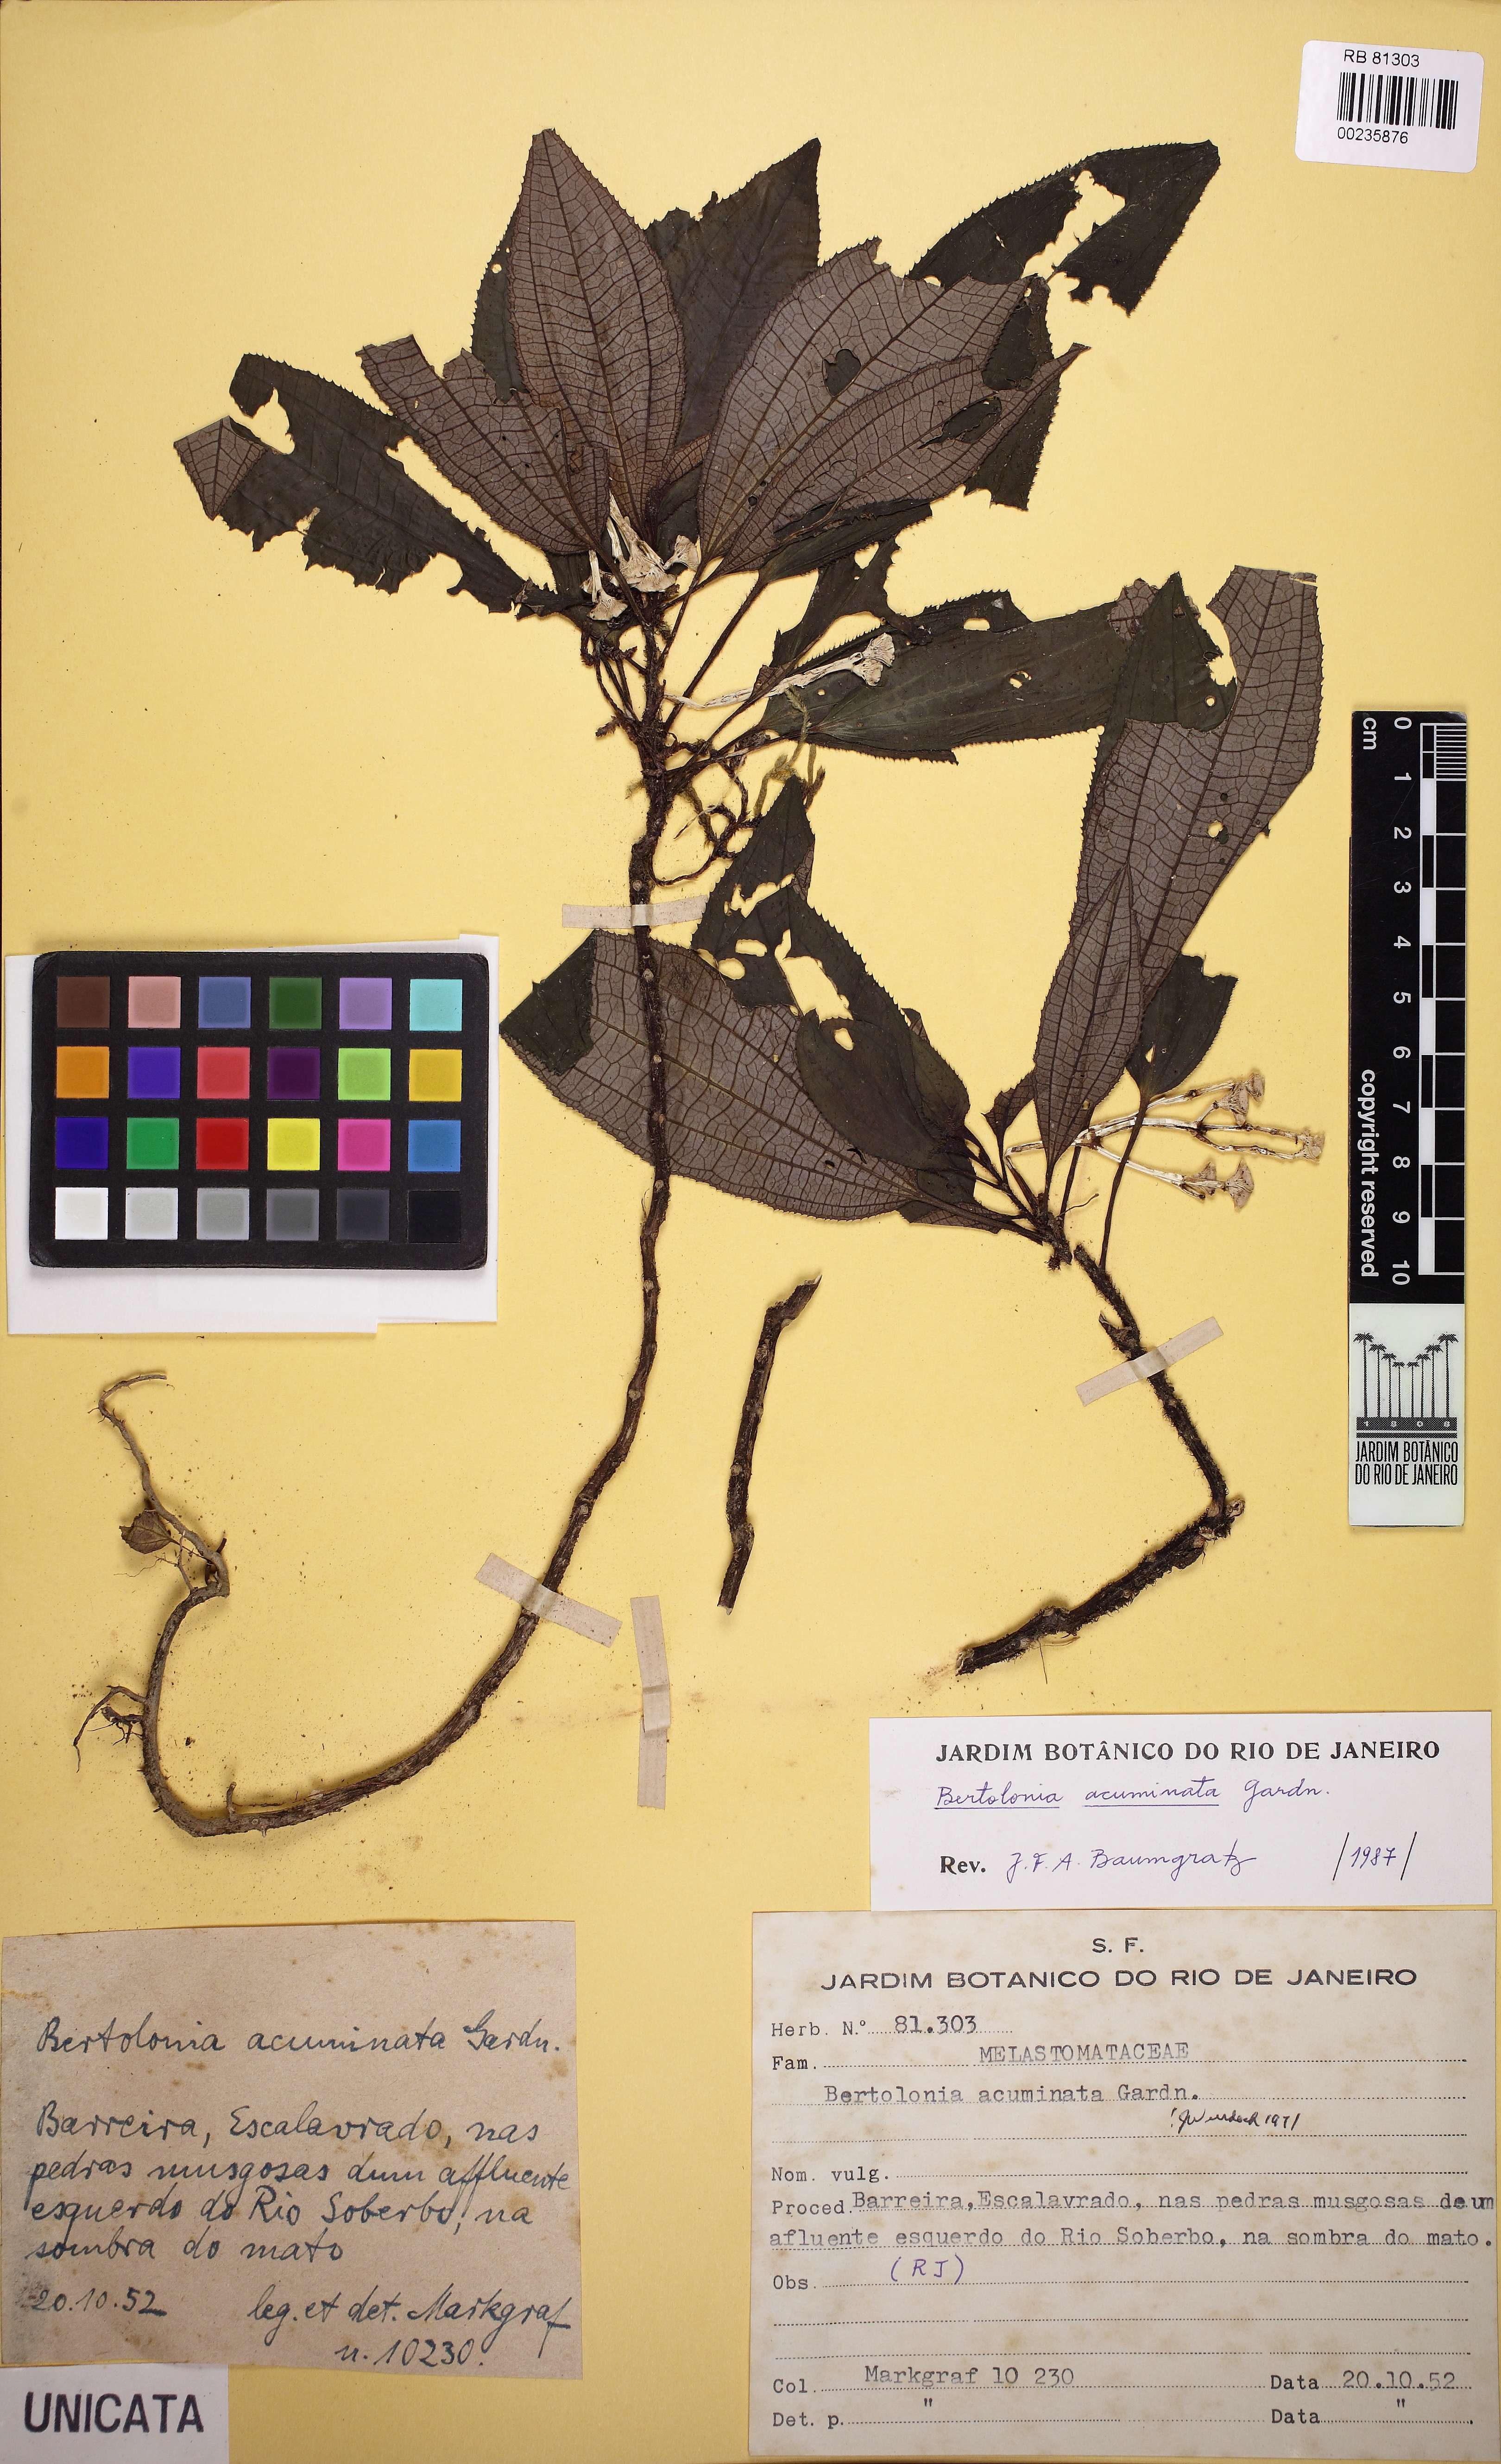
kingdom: Plantae
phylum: Tracheophyta
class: Magnoliopsida
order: Myrtales
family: Melastomataceae
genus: Bertolonia
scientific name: Bertolonia acuminata
